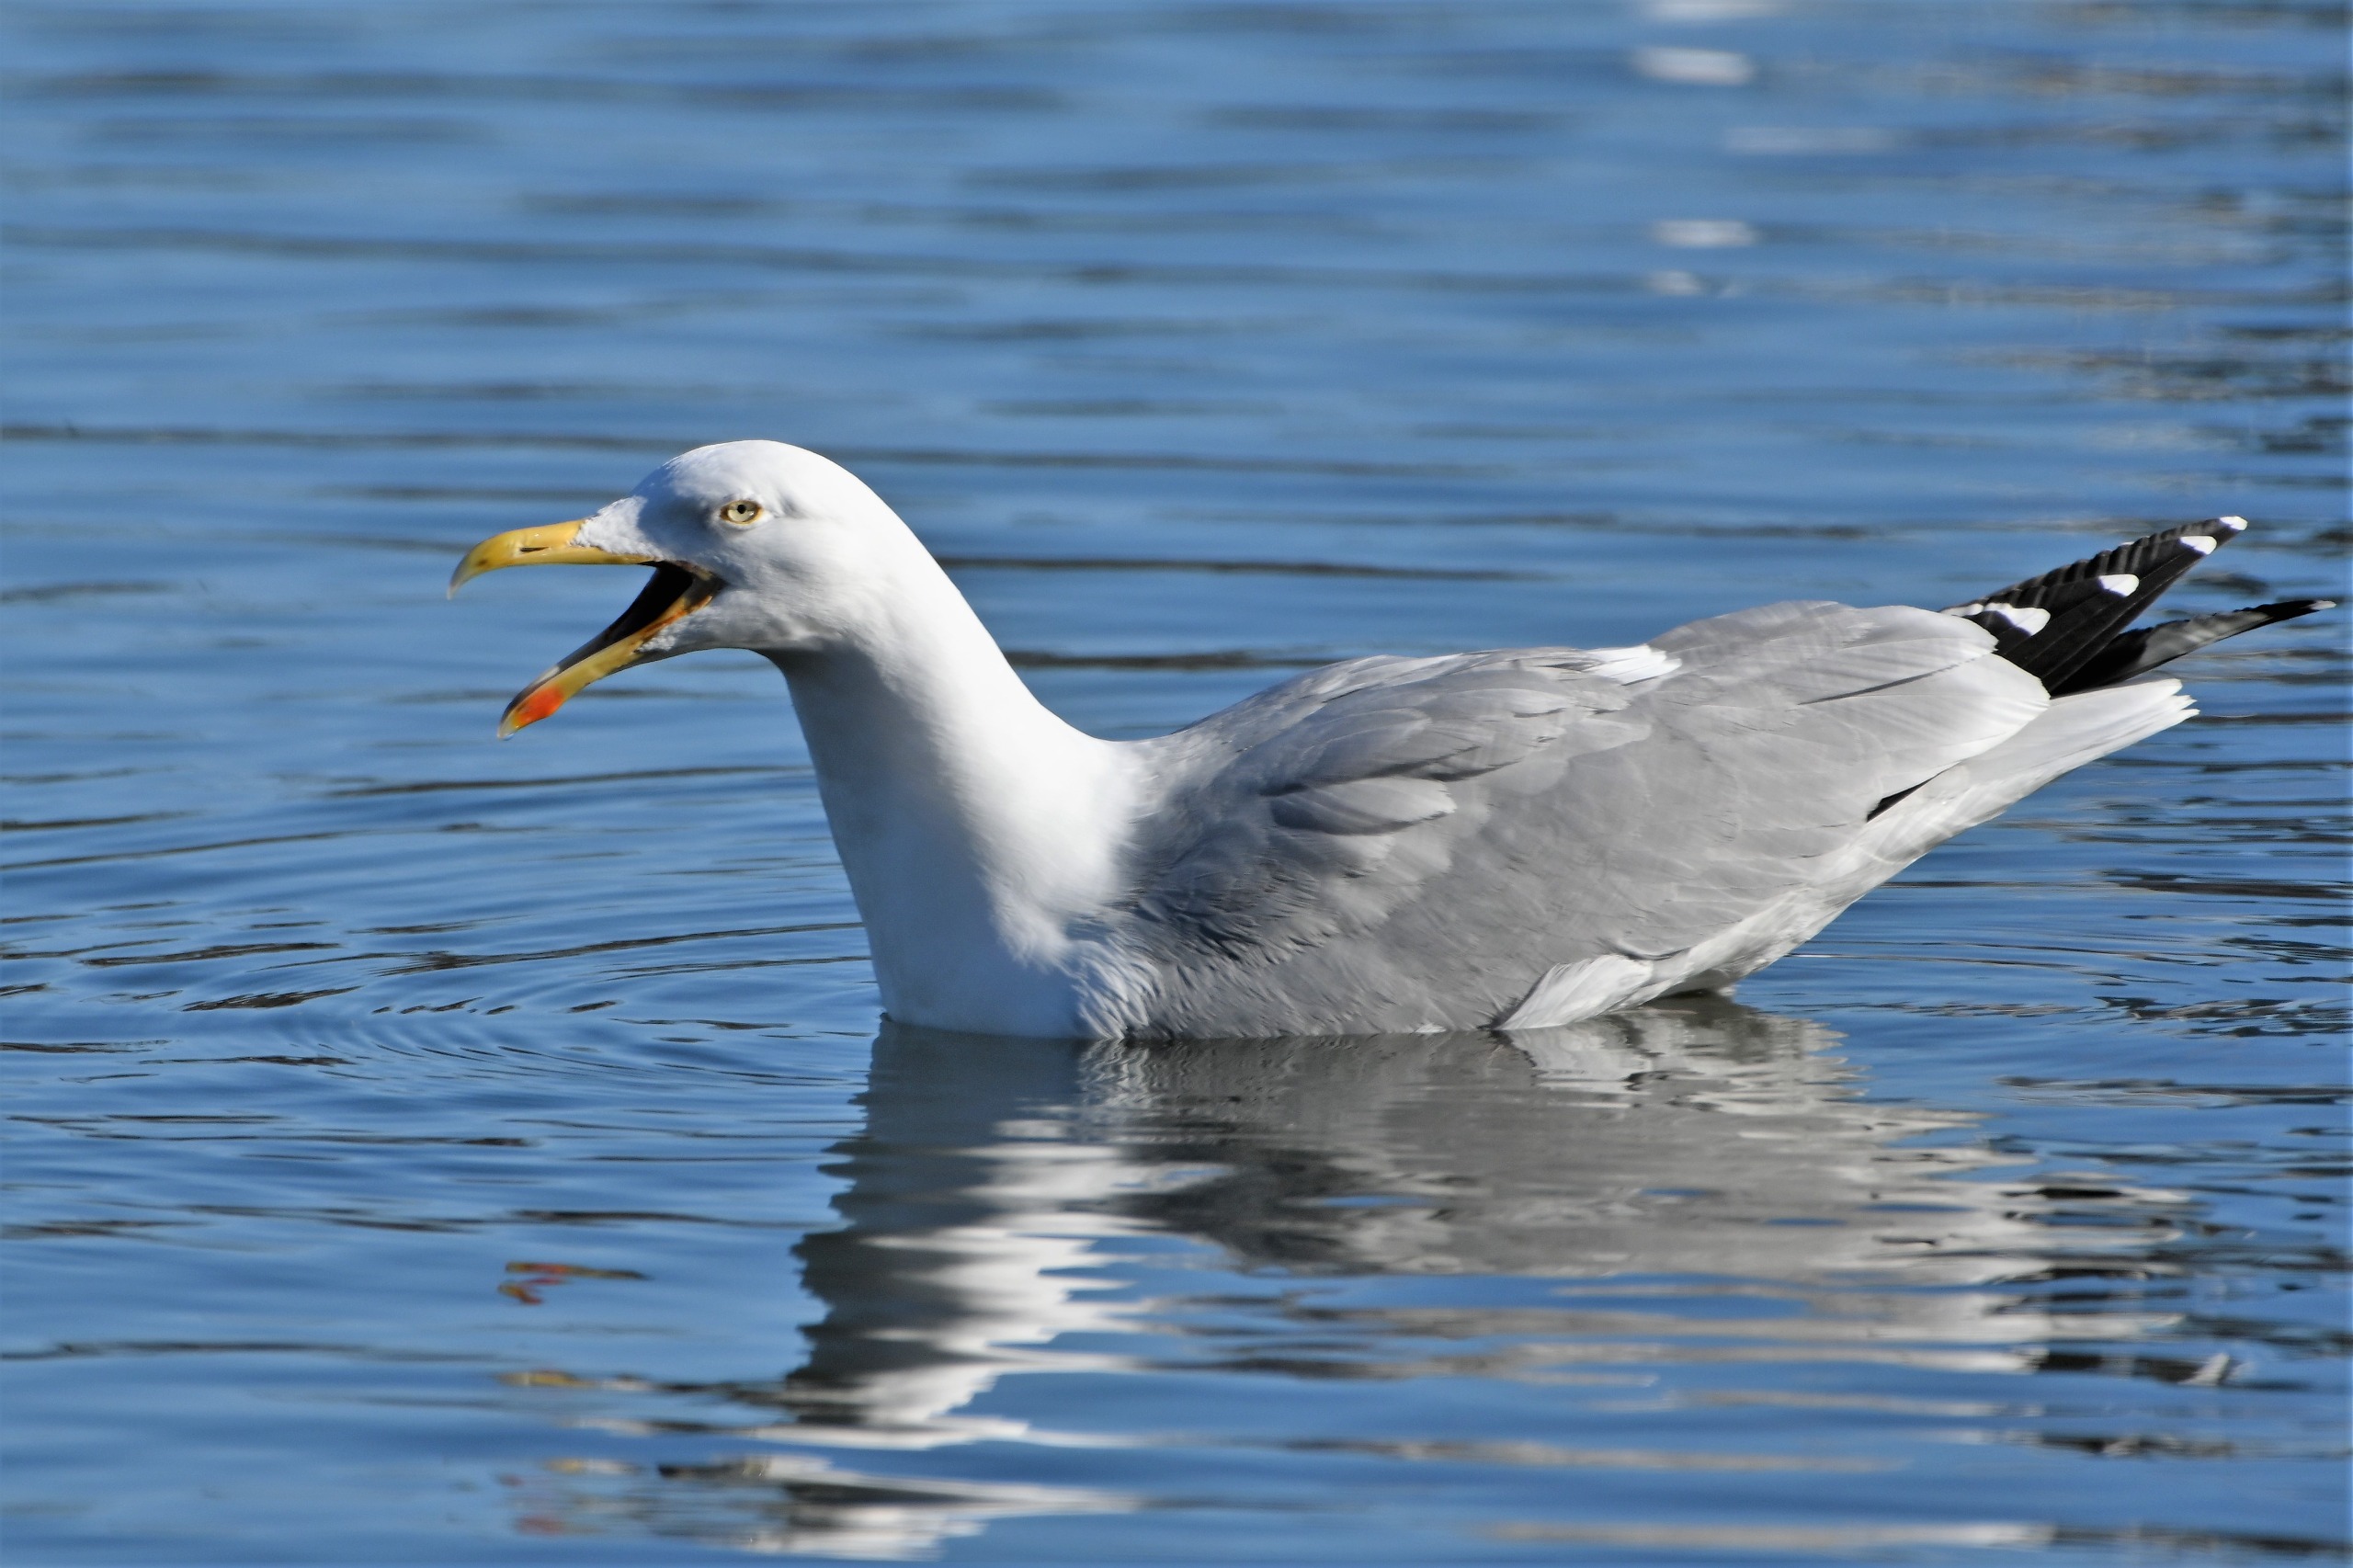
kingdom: Animalia
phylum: Chordata
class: Aves
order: Charadriiformes
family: Laridae
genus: Larus
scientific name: Larus argentatus
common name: Sølvmåge
